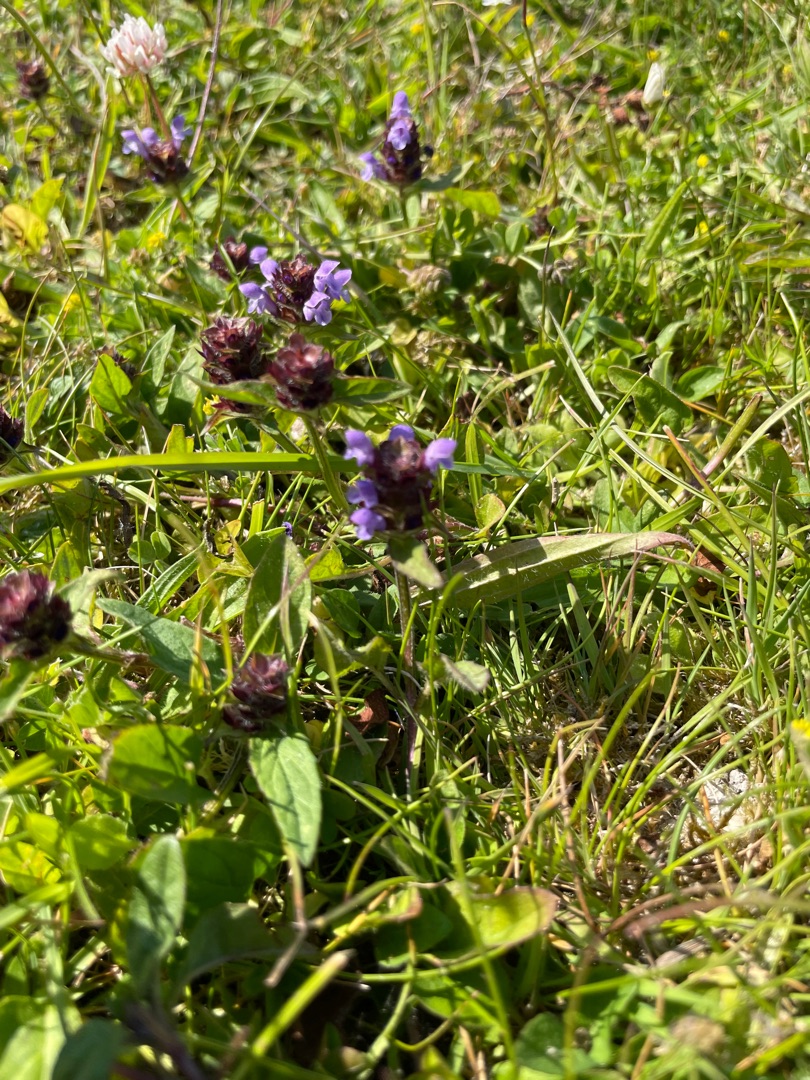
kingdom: Plantae
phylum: Tracheophyta
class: Magnoliopsida
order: Lamiales
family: Lamiaceae
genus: Prunella
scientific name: Prunella vulgaris
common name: Almindelig brunelle
